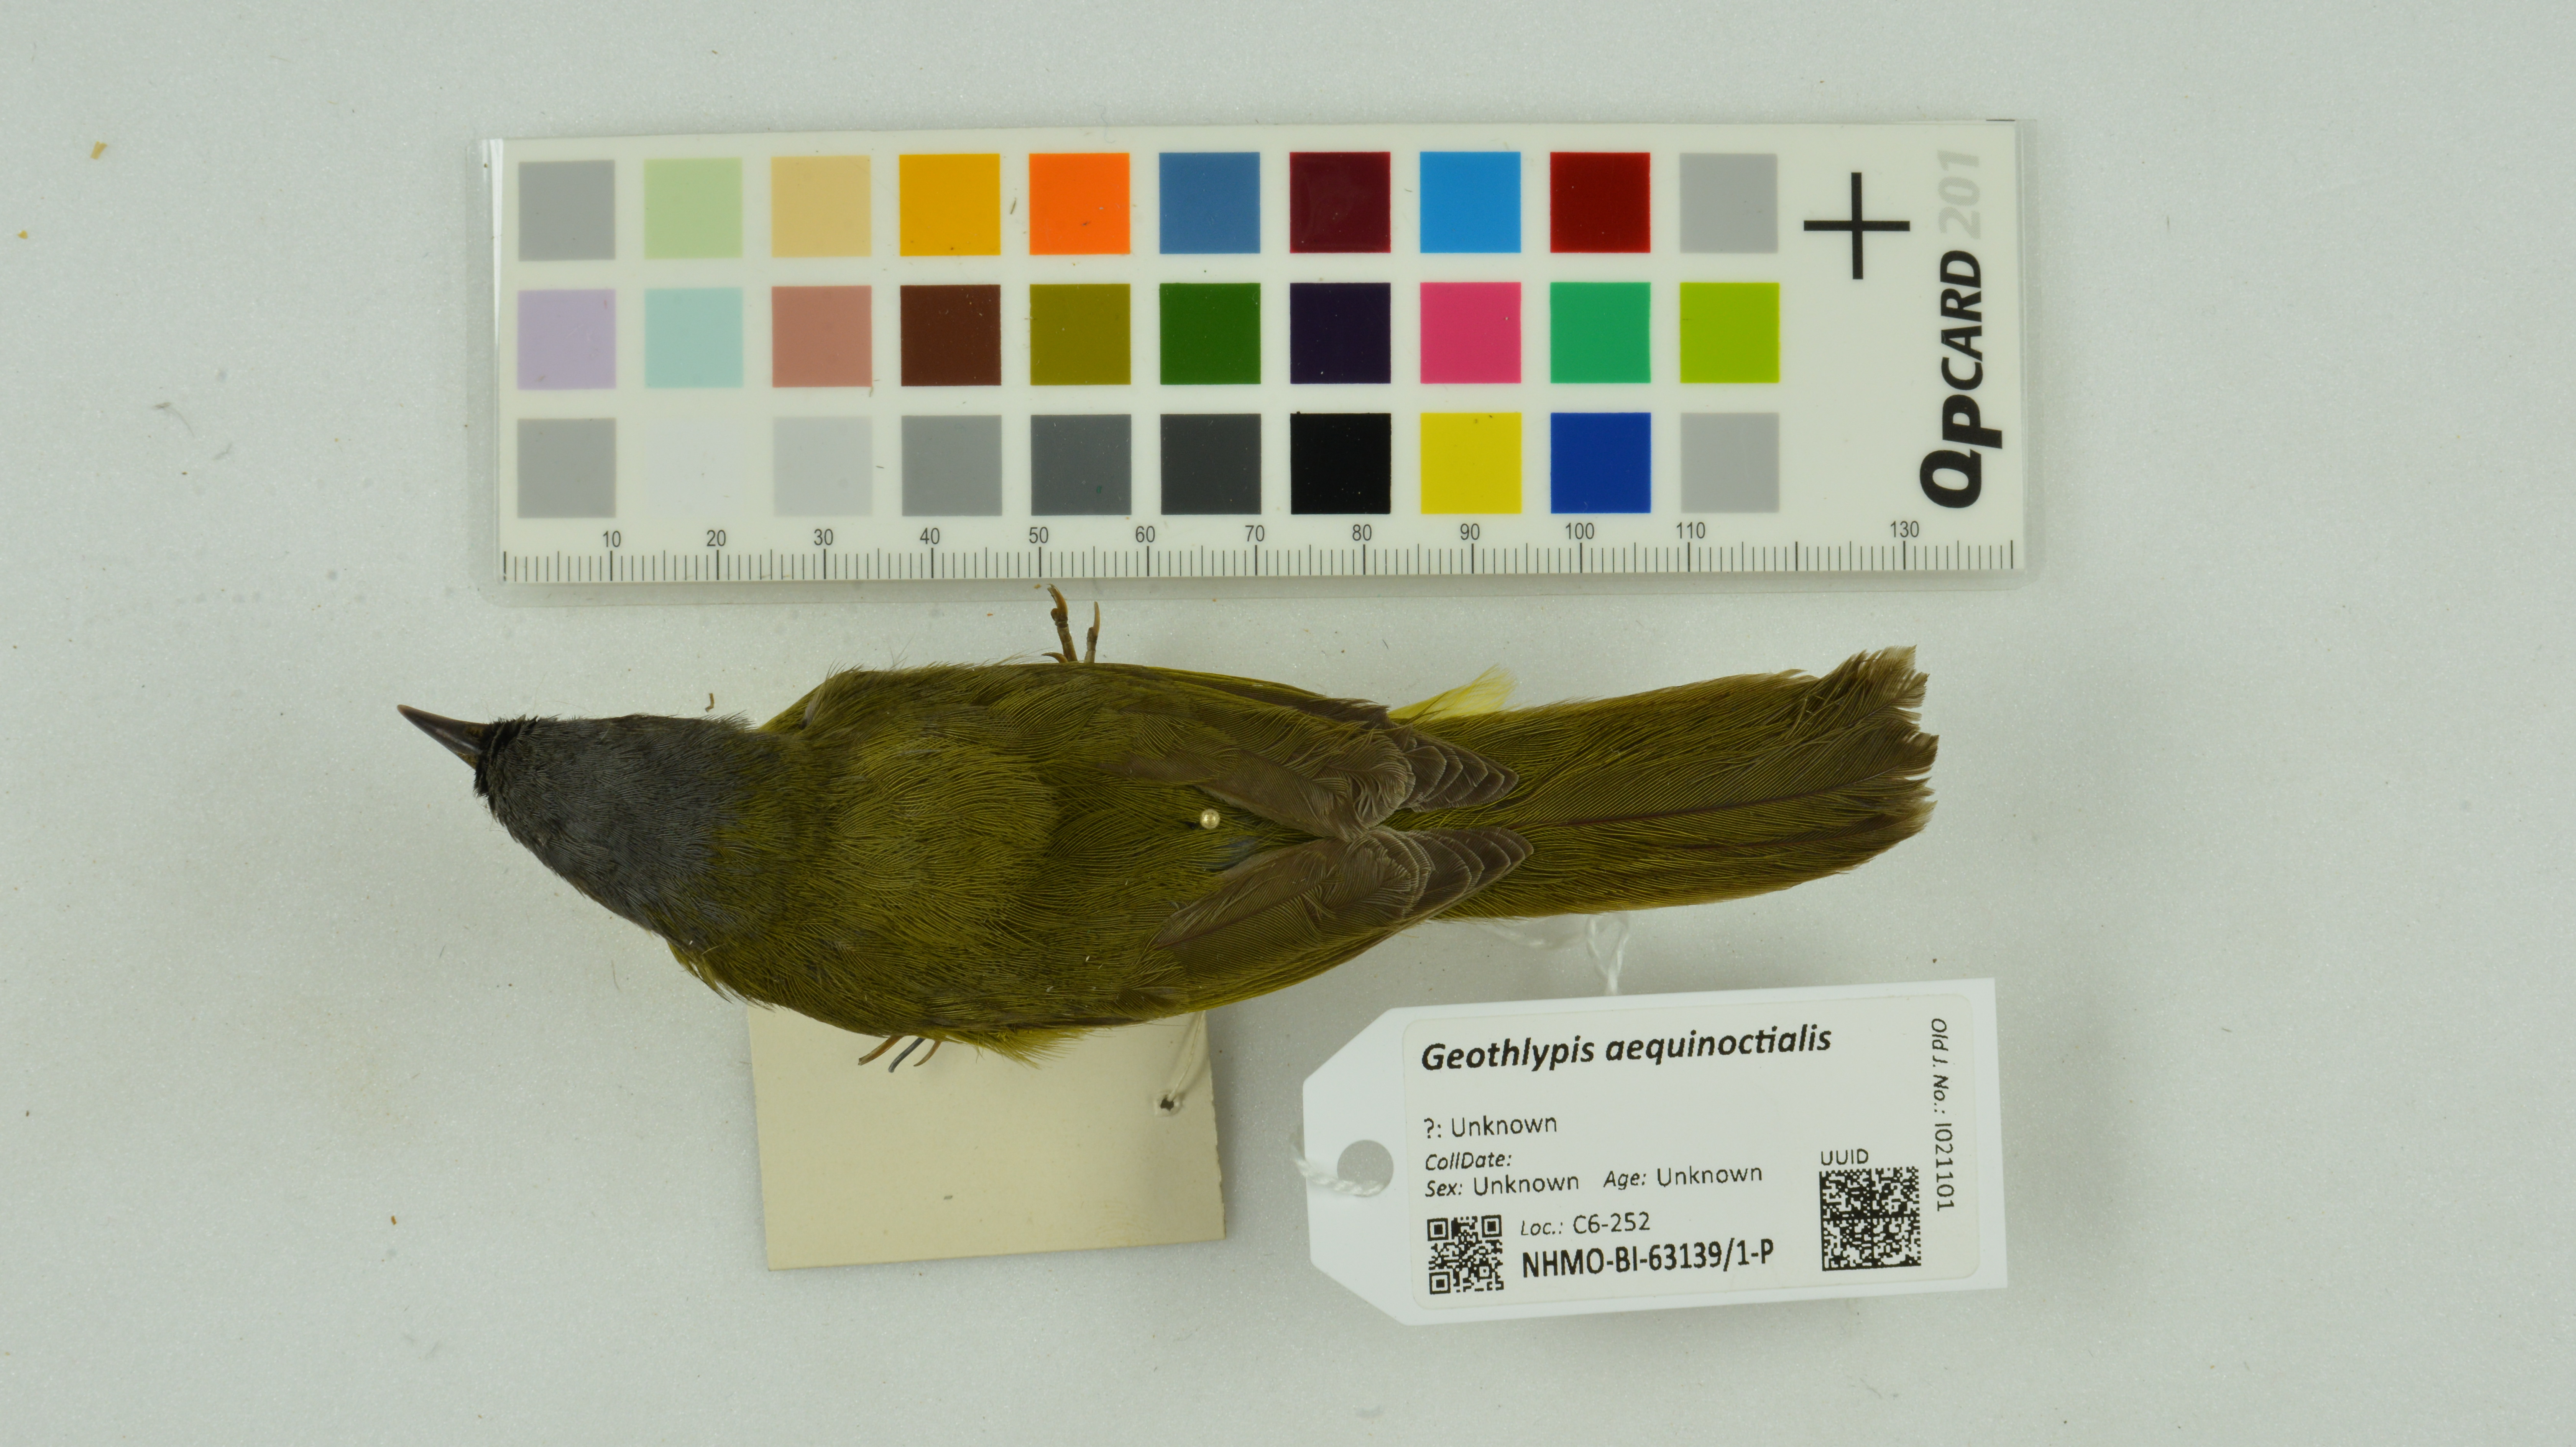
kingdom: Animalia
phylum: Chordata
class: Aves
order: Passeriformes
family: Parulidae
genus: Geothlypis
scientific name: Geothlypis aequinoctialis
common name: Masked yellowthroat
